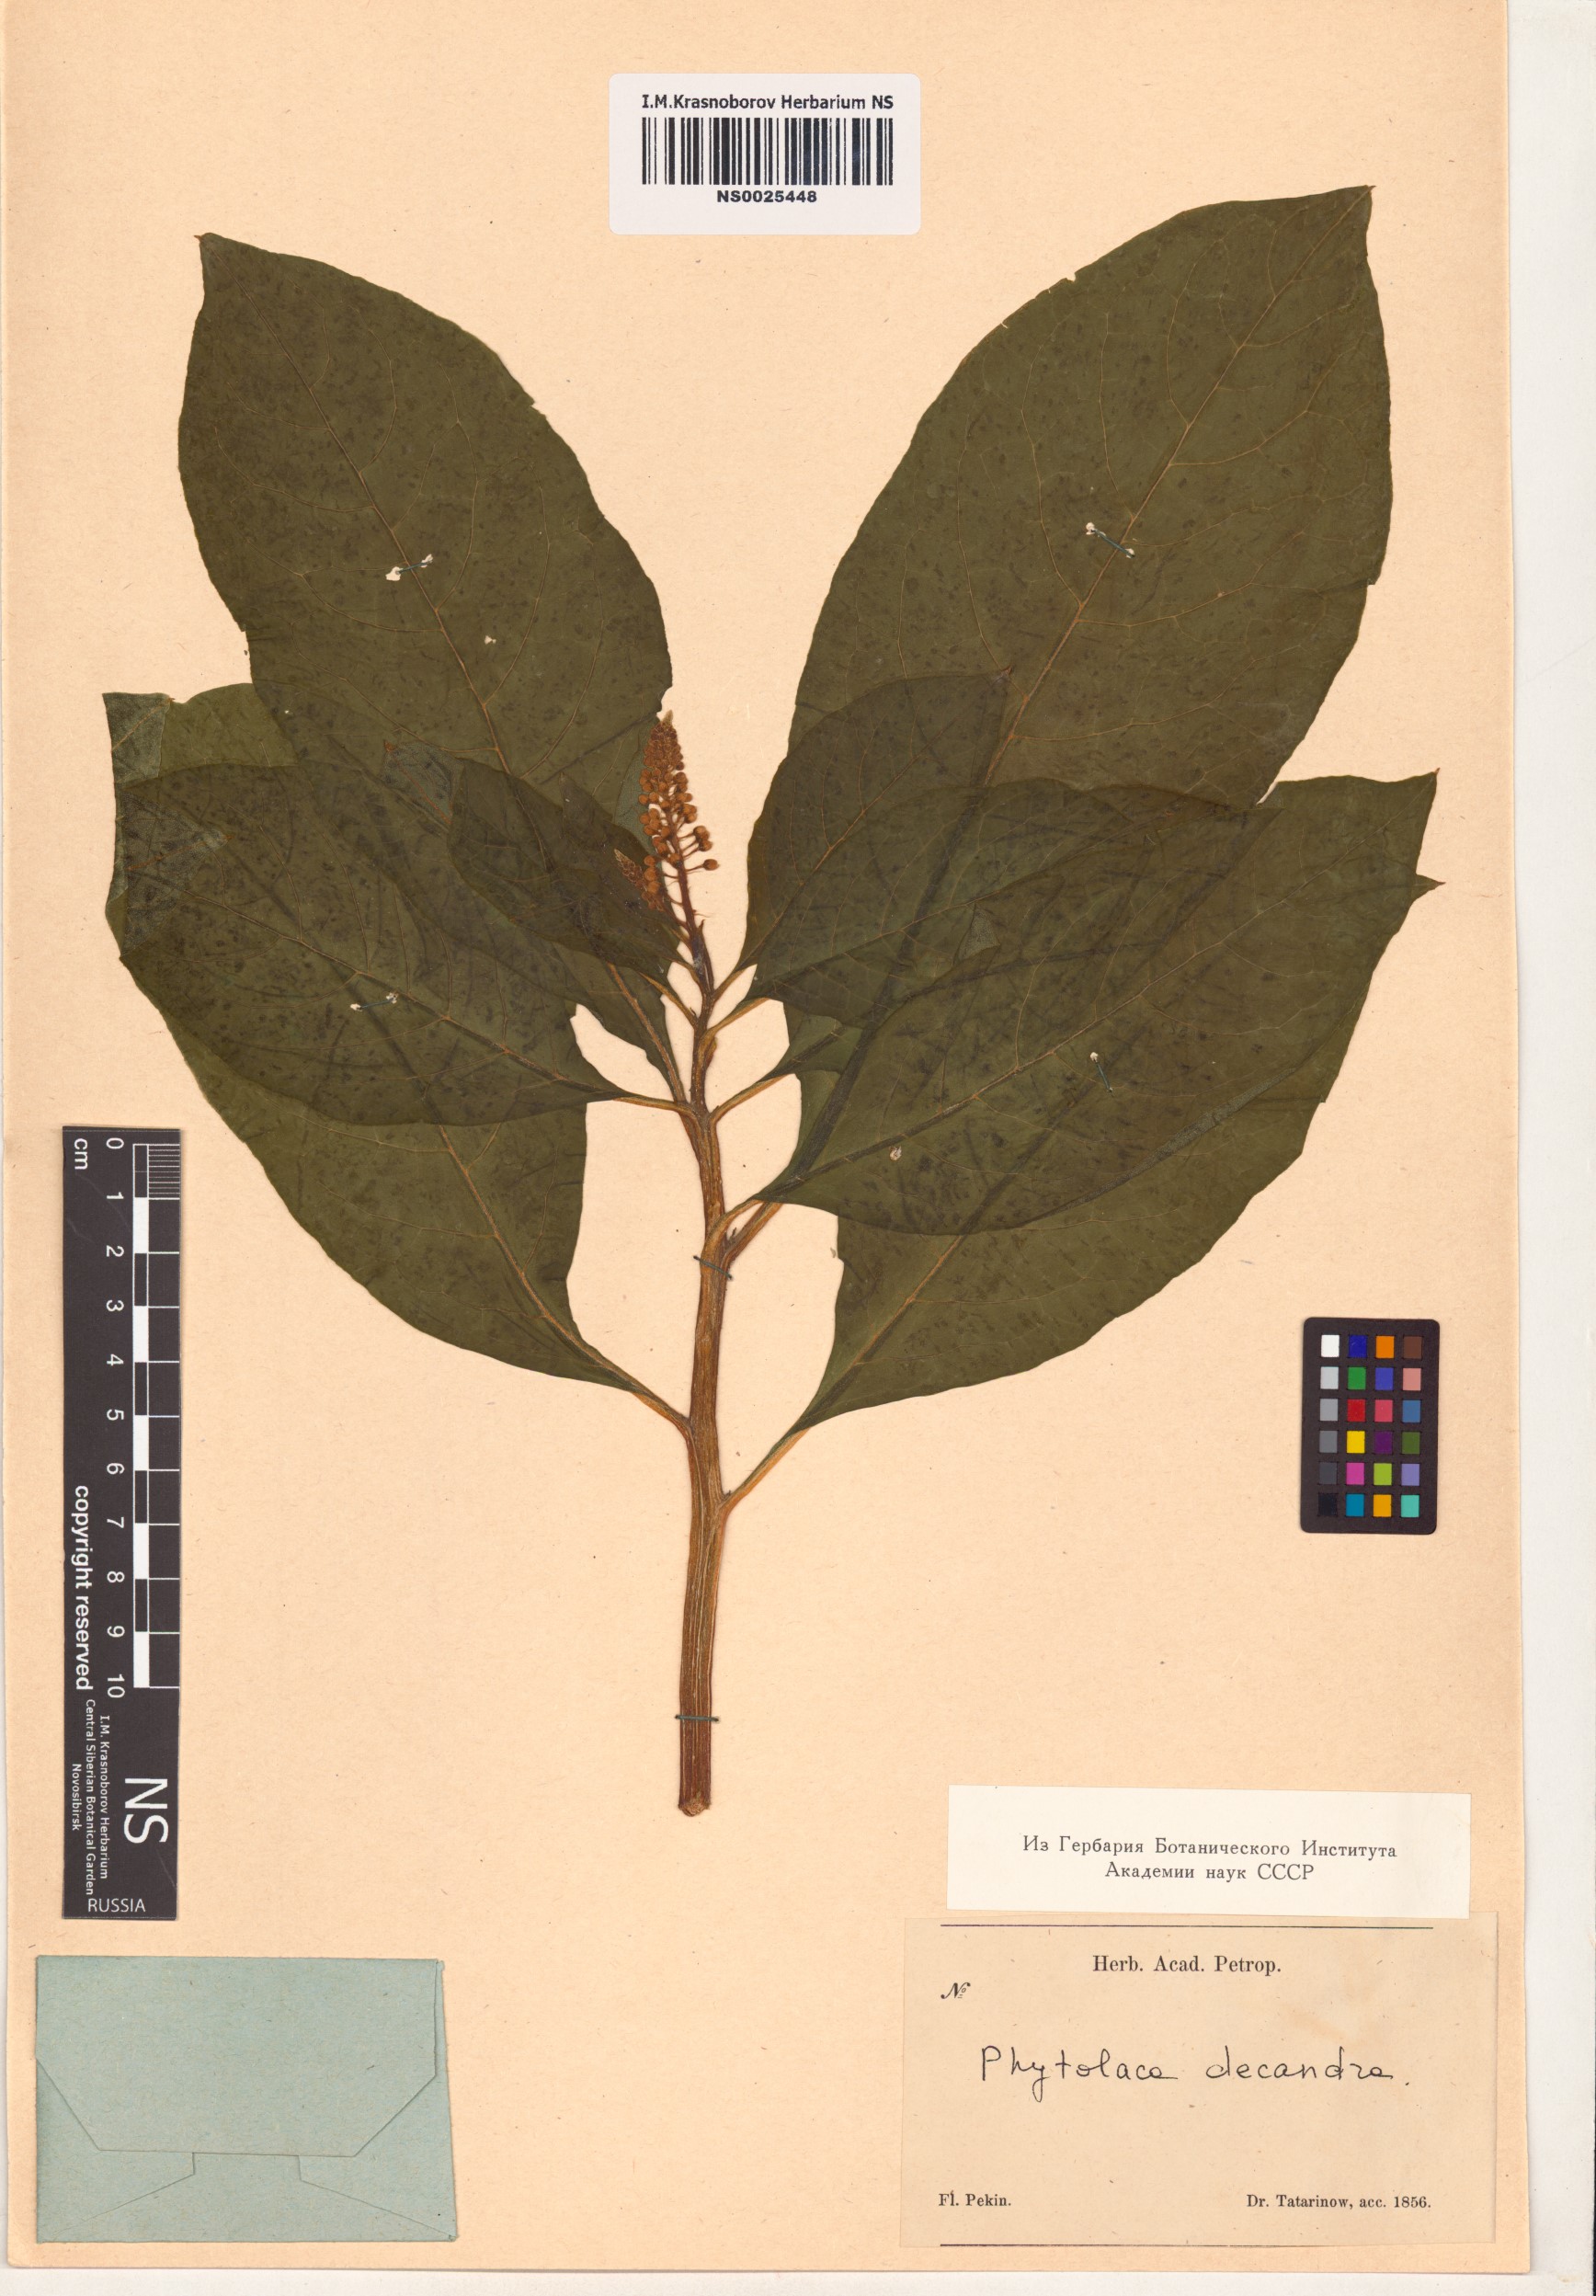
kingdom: Plantae
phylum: Tracheophyta
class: Magnoliopsida
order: Caryophyllales
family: Phytolaccaceae
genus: Phytolacca
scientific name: Phytolacca americana
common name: American pokeweed
